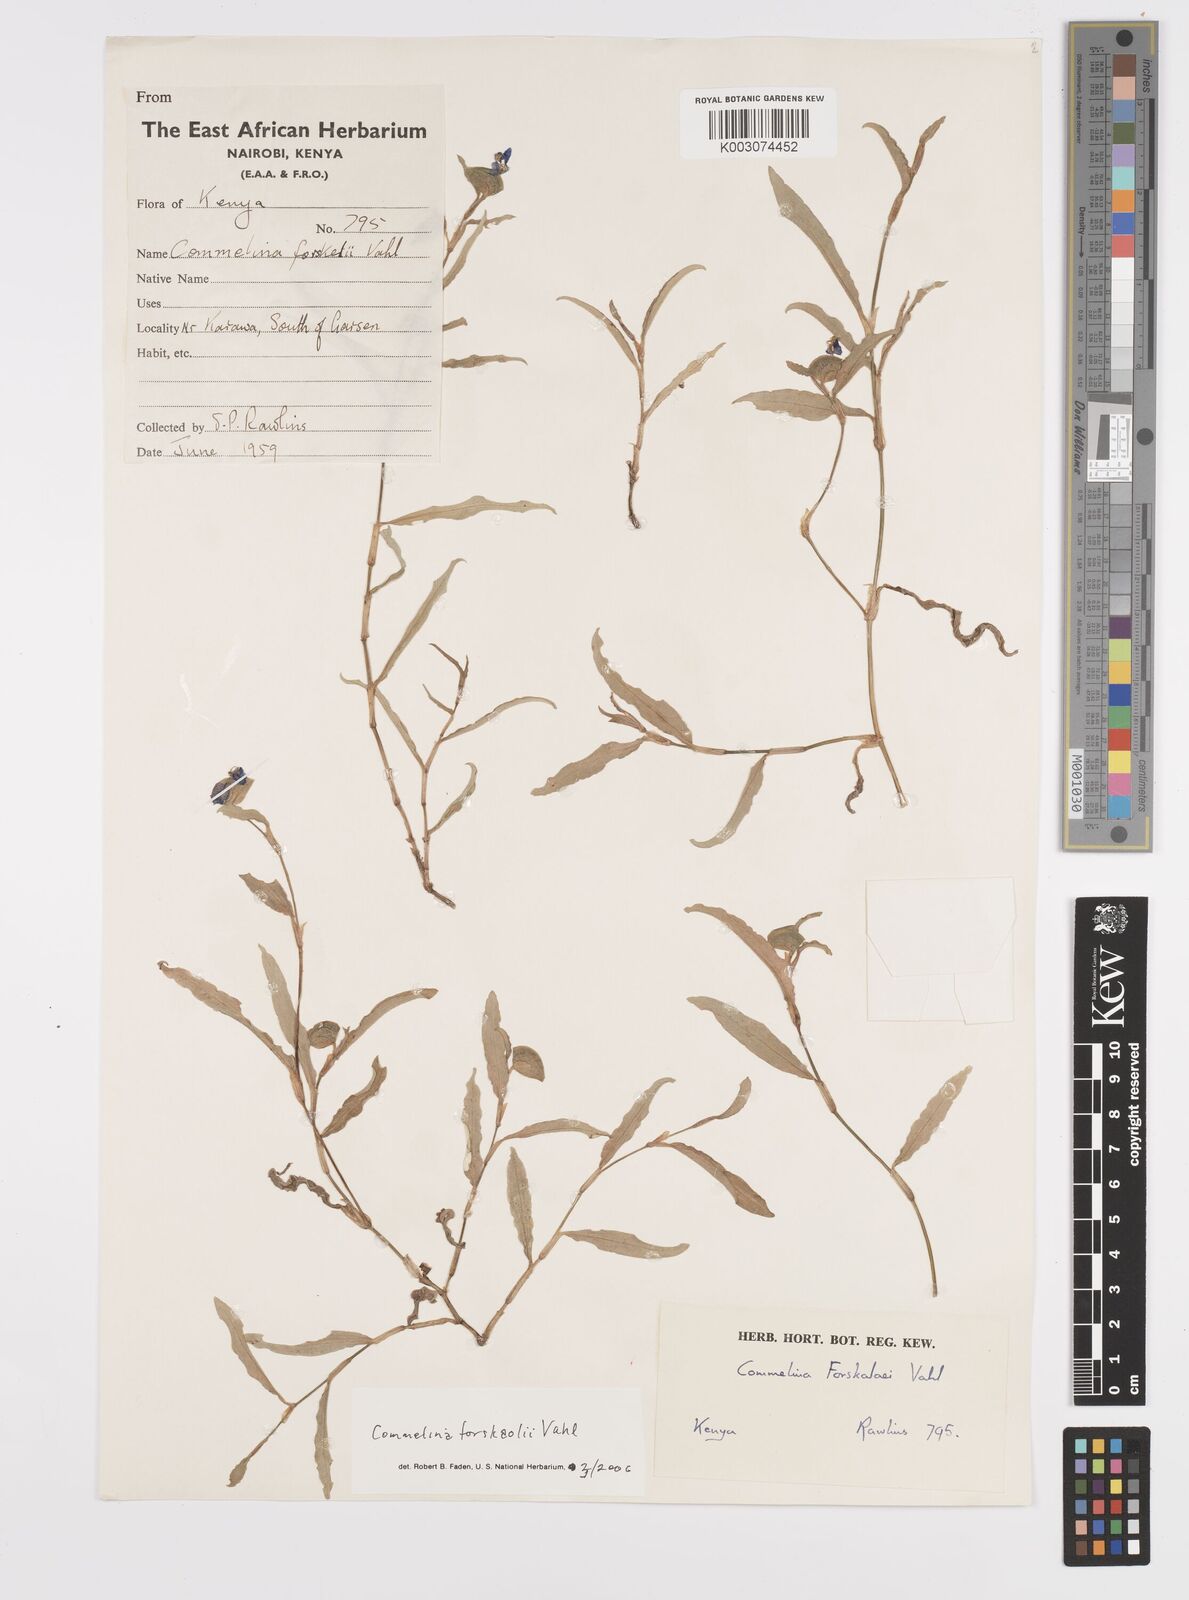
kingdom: Plantae
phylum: Tracheophyta
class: Liliopsida
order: Commelinales
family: Commelinaceae
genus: Commelina
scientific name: Commelina
